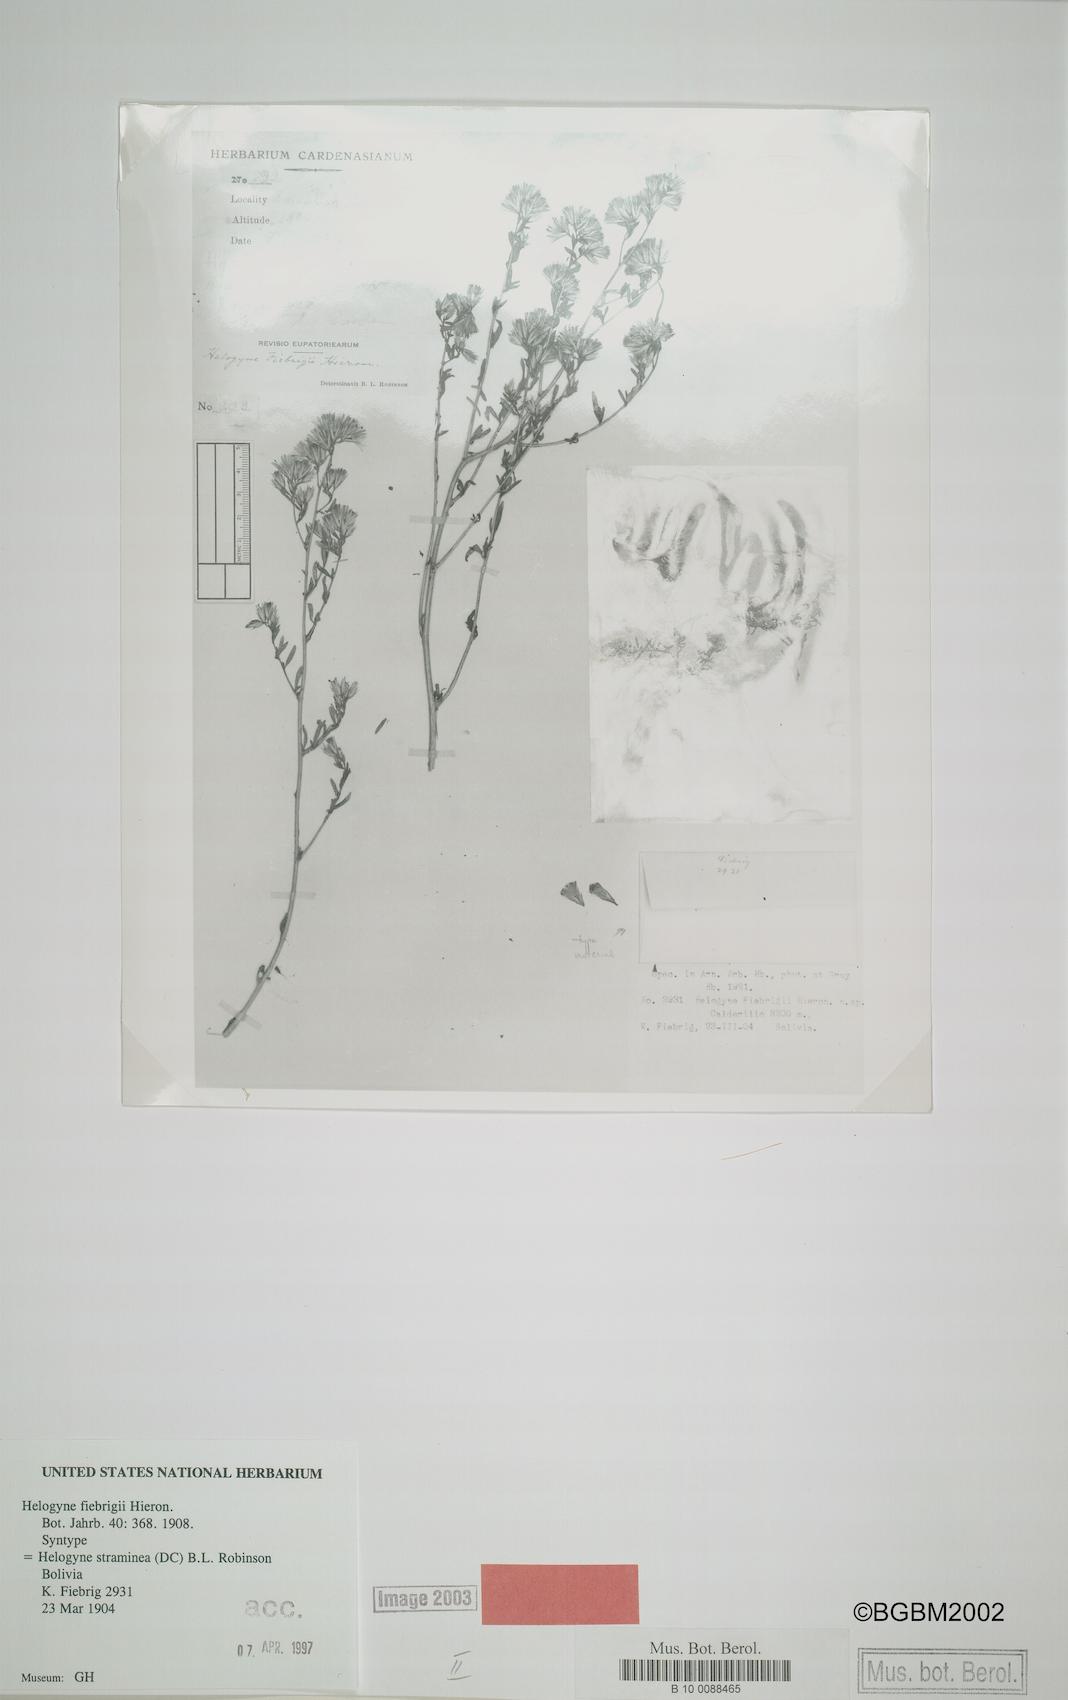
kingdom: Plantae
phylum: Tracheophyta
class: Magnoliopsida
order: Asterales
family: Asteraceae
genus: Helogyne
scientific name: Helogyne straminea
